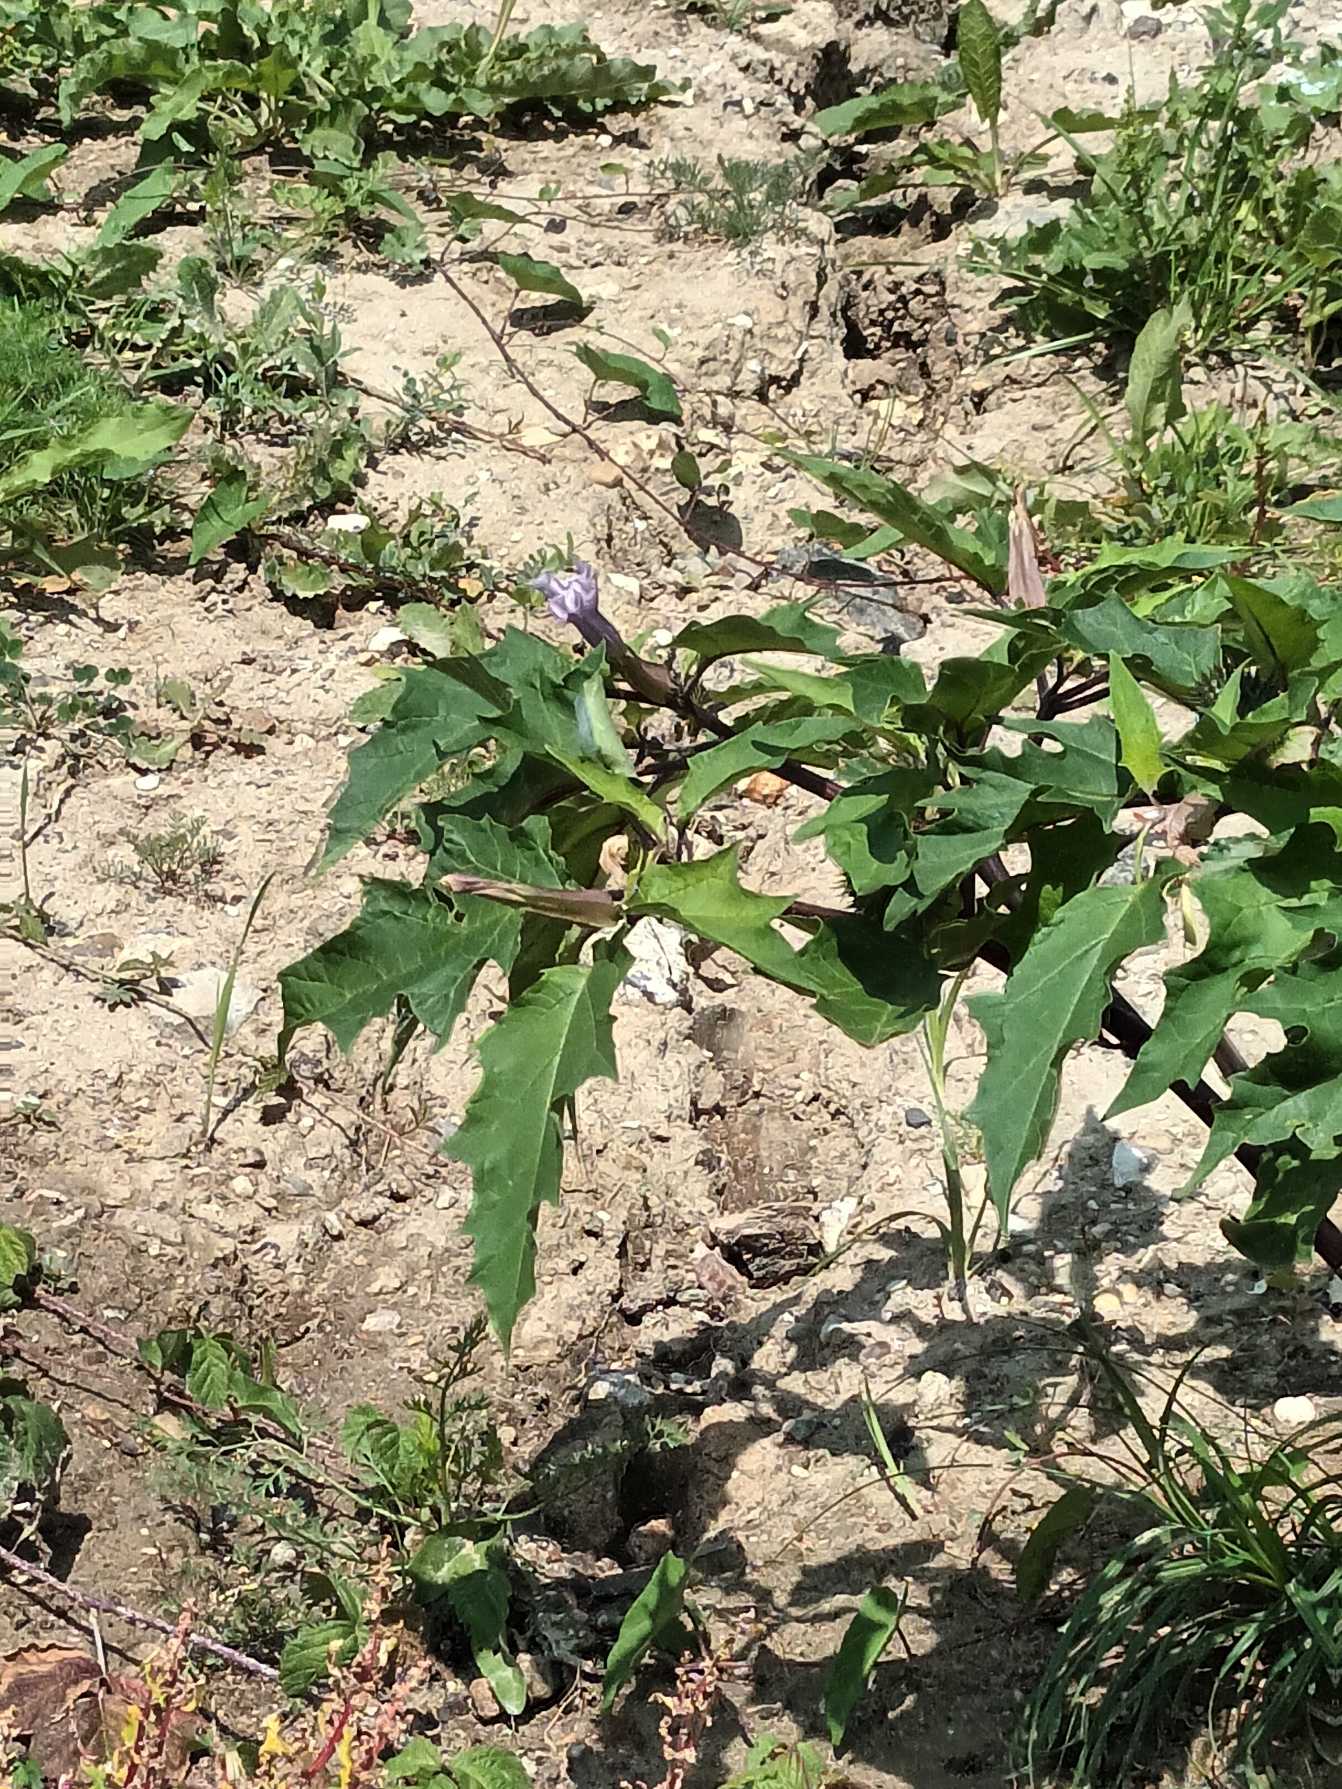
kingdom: Plantae
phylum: Tracheophyta
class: Magnoliopsida
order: Solanales
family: Solanaceae
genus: Datura
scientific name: Datura stramonium
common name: Blå pigæble
